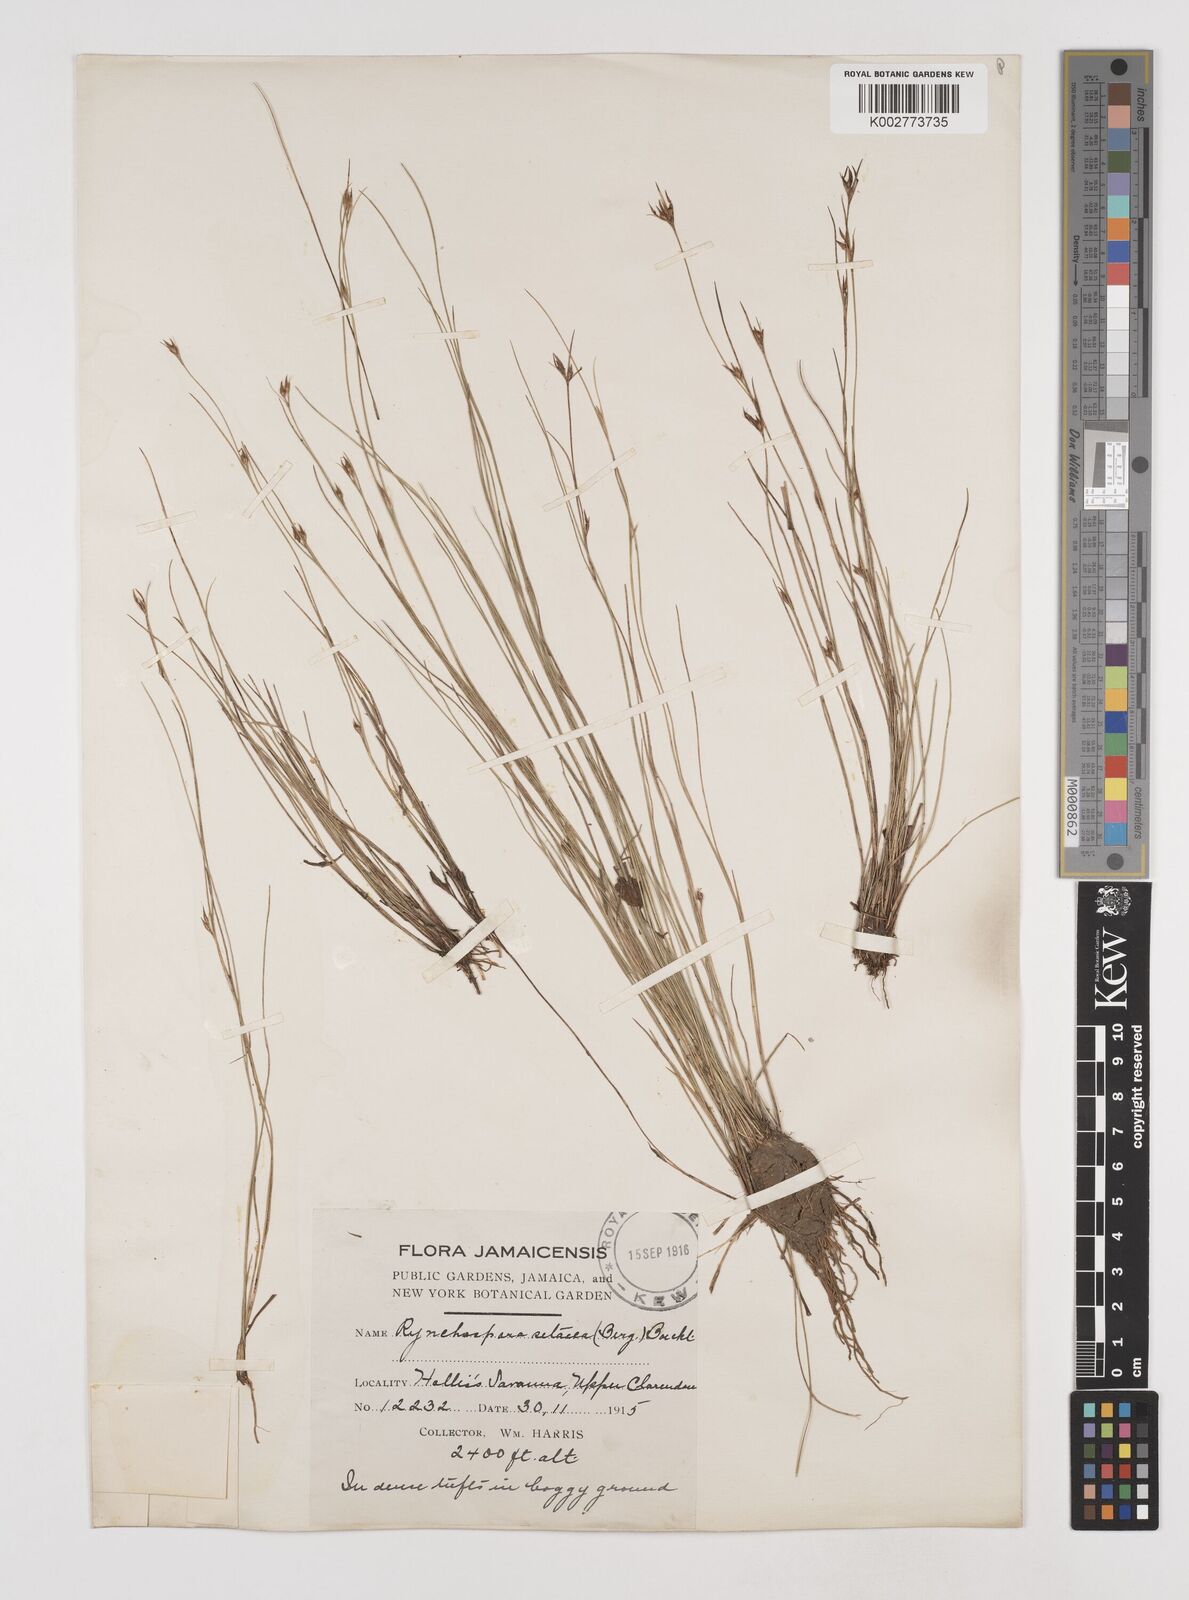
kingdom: Plantae
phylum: Tracheophyta
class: Liliopsida
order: Poales
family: Cyperaceae
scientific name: Cyperaceae
